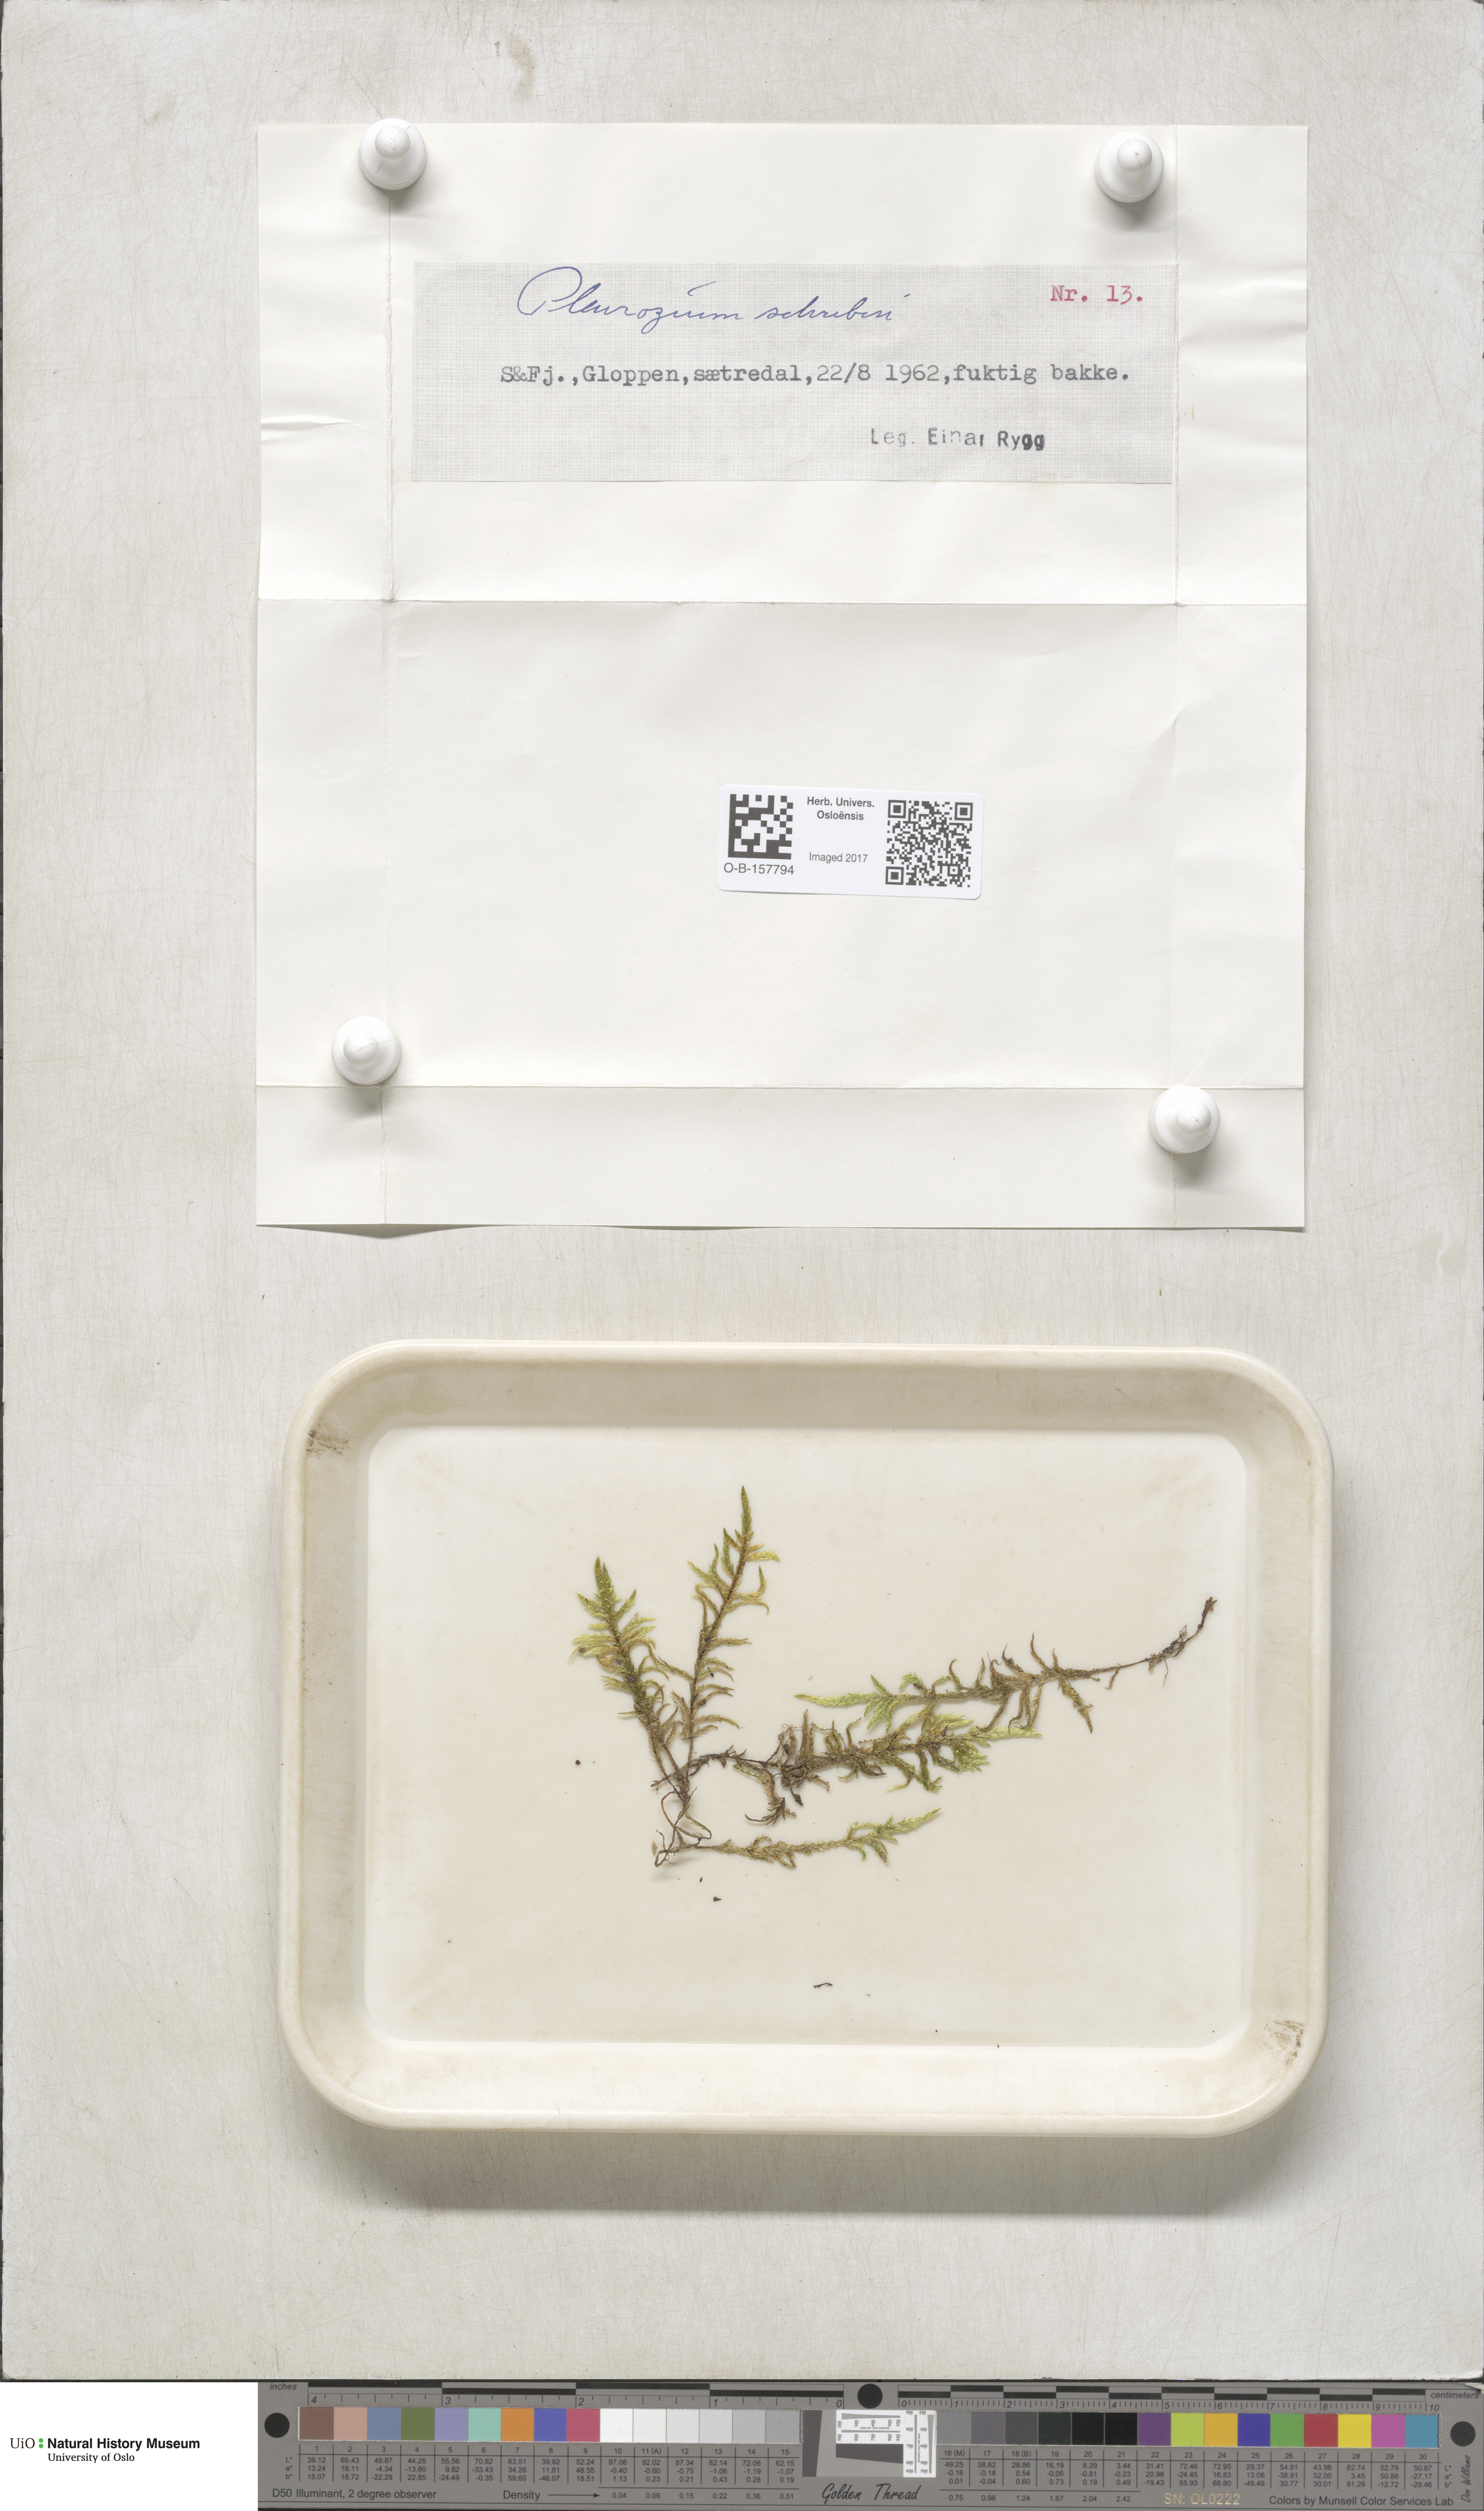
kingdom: Plantae
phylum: Bryophyta
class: Bryopsida
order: Hypnales
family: Hylocomiaceae
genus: Pleurozium
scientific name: Pleurozium schreberi
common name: Red-stemmed feather moss
